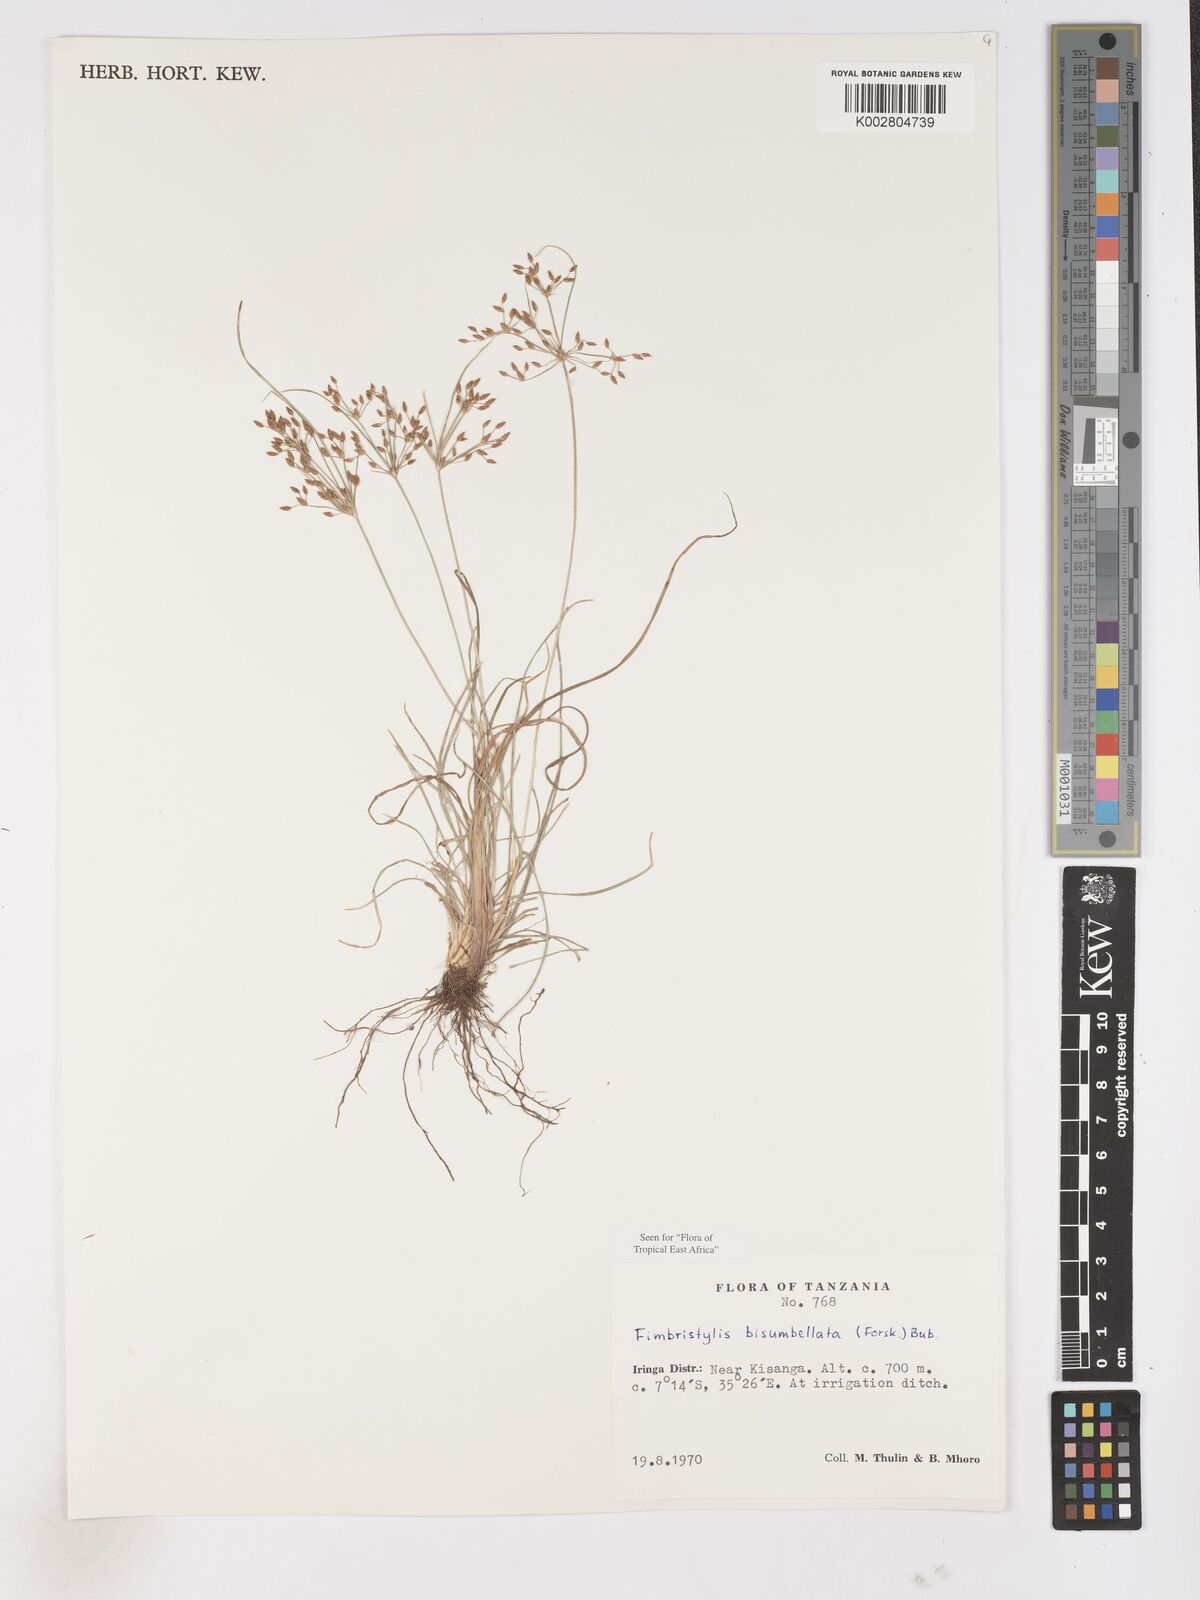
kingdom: Plantae
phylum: Tracheophyta
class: Liliopsida
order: Poales
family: Cyperaceae
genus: Fimbristylis
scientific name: Fimbristylis bisumbellata
